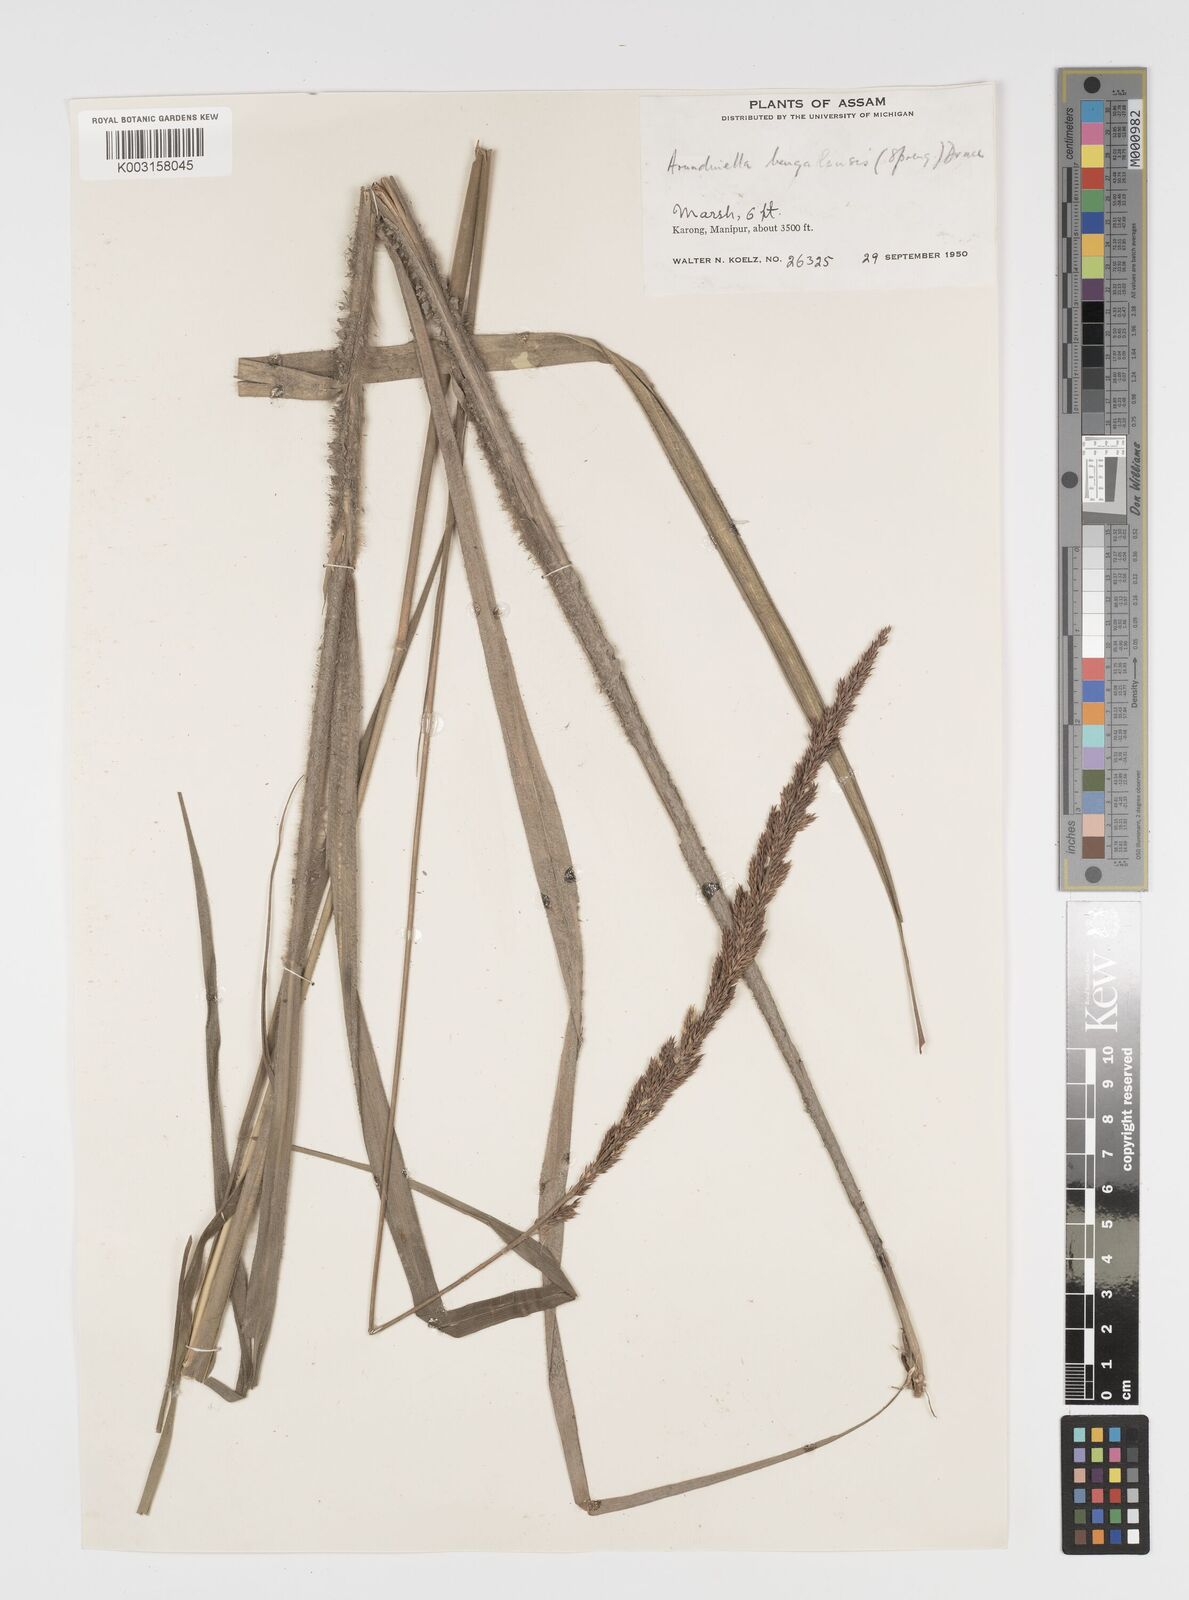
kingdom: Plantae
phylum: Tracheophyta
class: Liliopsida
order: Poales
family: Poaceae
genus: Arundinella
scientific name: Arundinella bengalensis
